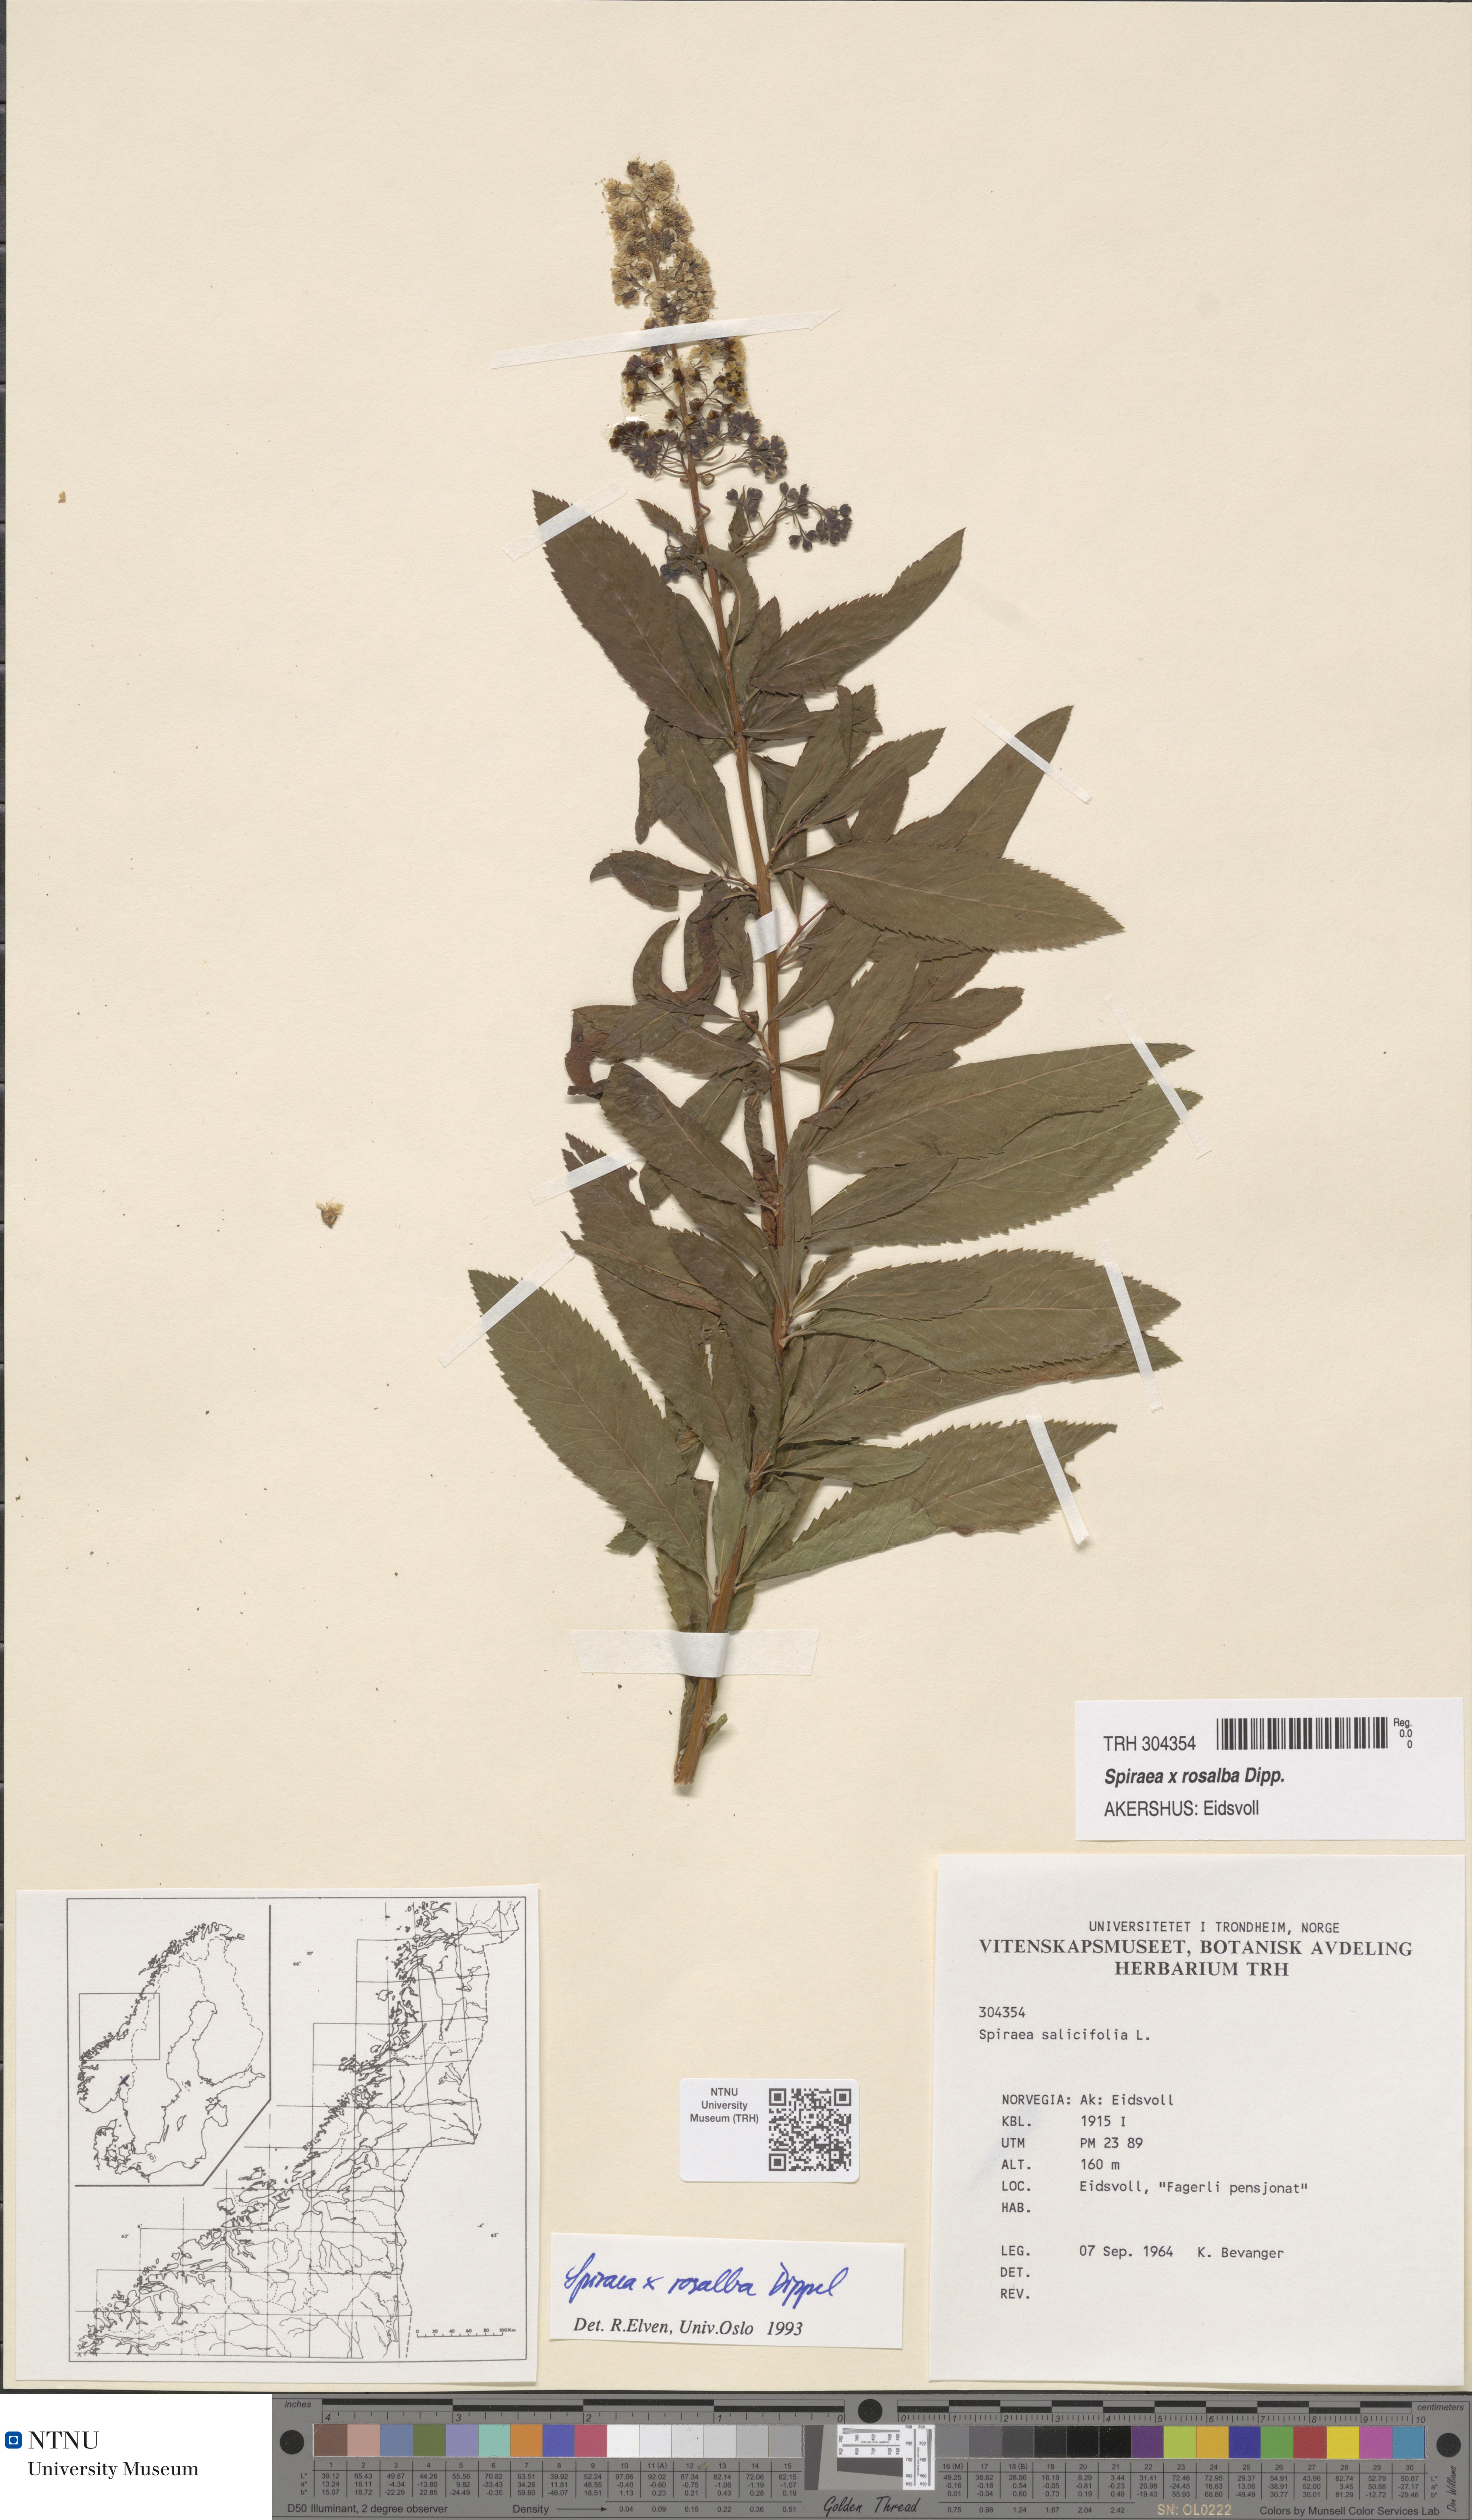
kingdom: Plantae
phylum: Tracheophyta
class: Magnoliopsida
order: Rosales
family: Rosaceae
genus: Spiraea
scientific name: Spiraea rosalba
